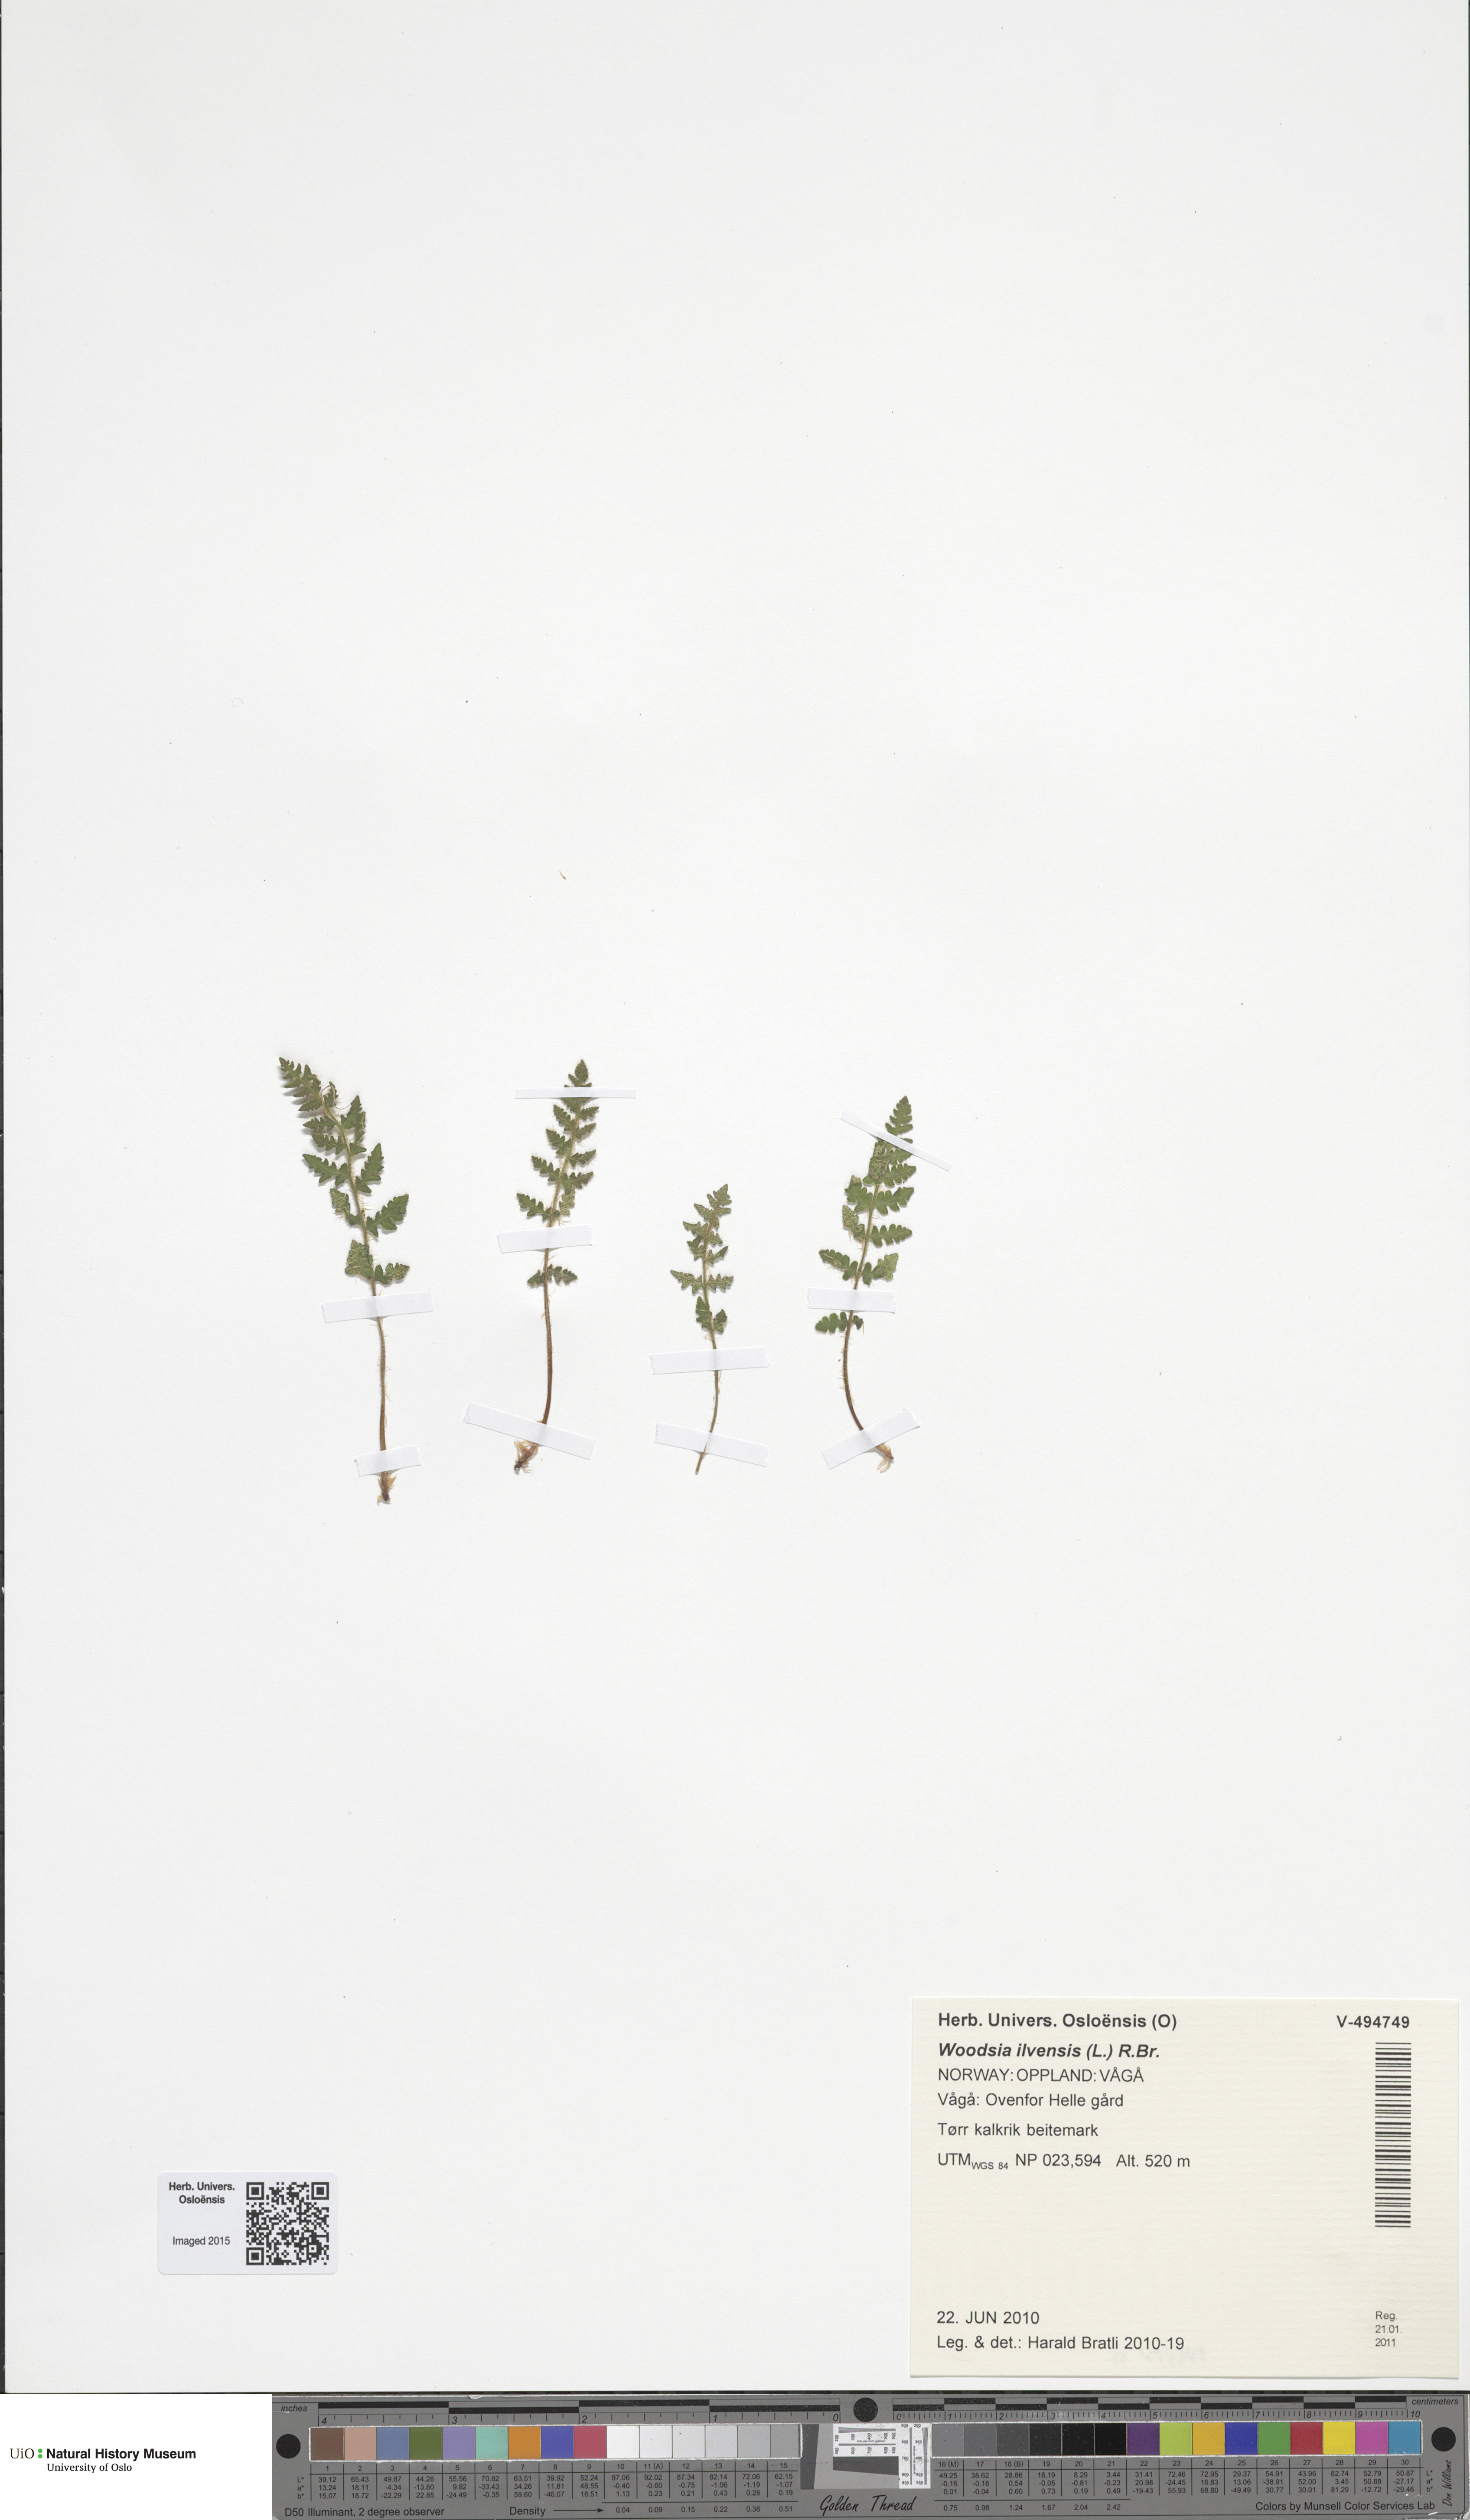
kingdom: Plantae
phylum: Tracheophyta
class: Polypodiopsida
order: Polypodiales
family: Woodsiaceae
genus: Woodsia
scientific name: Woodsia ilvensis
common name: Fragrant woodsia
